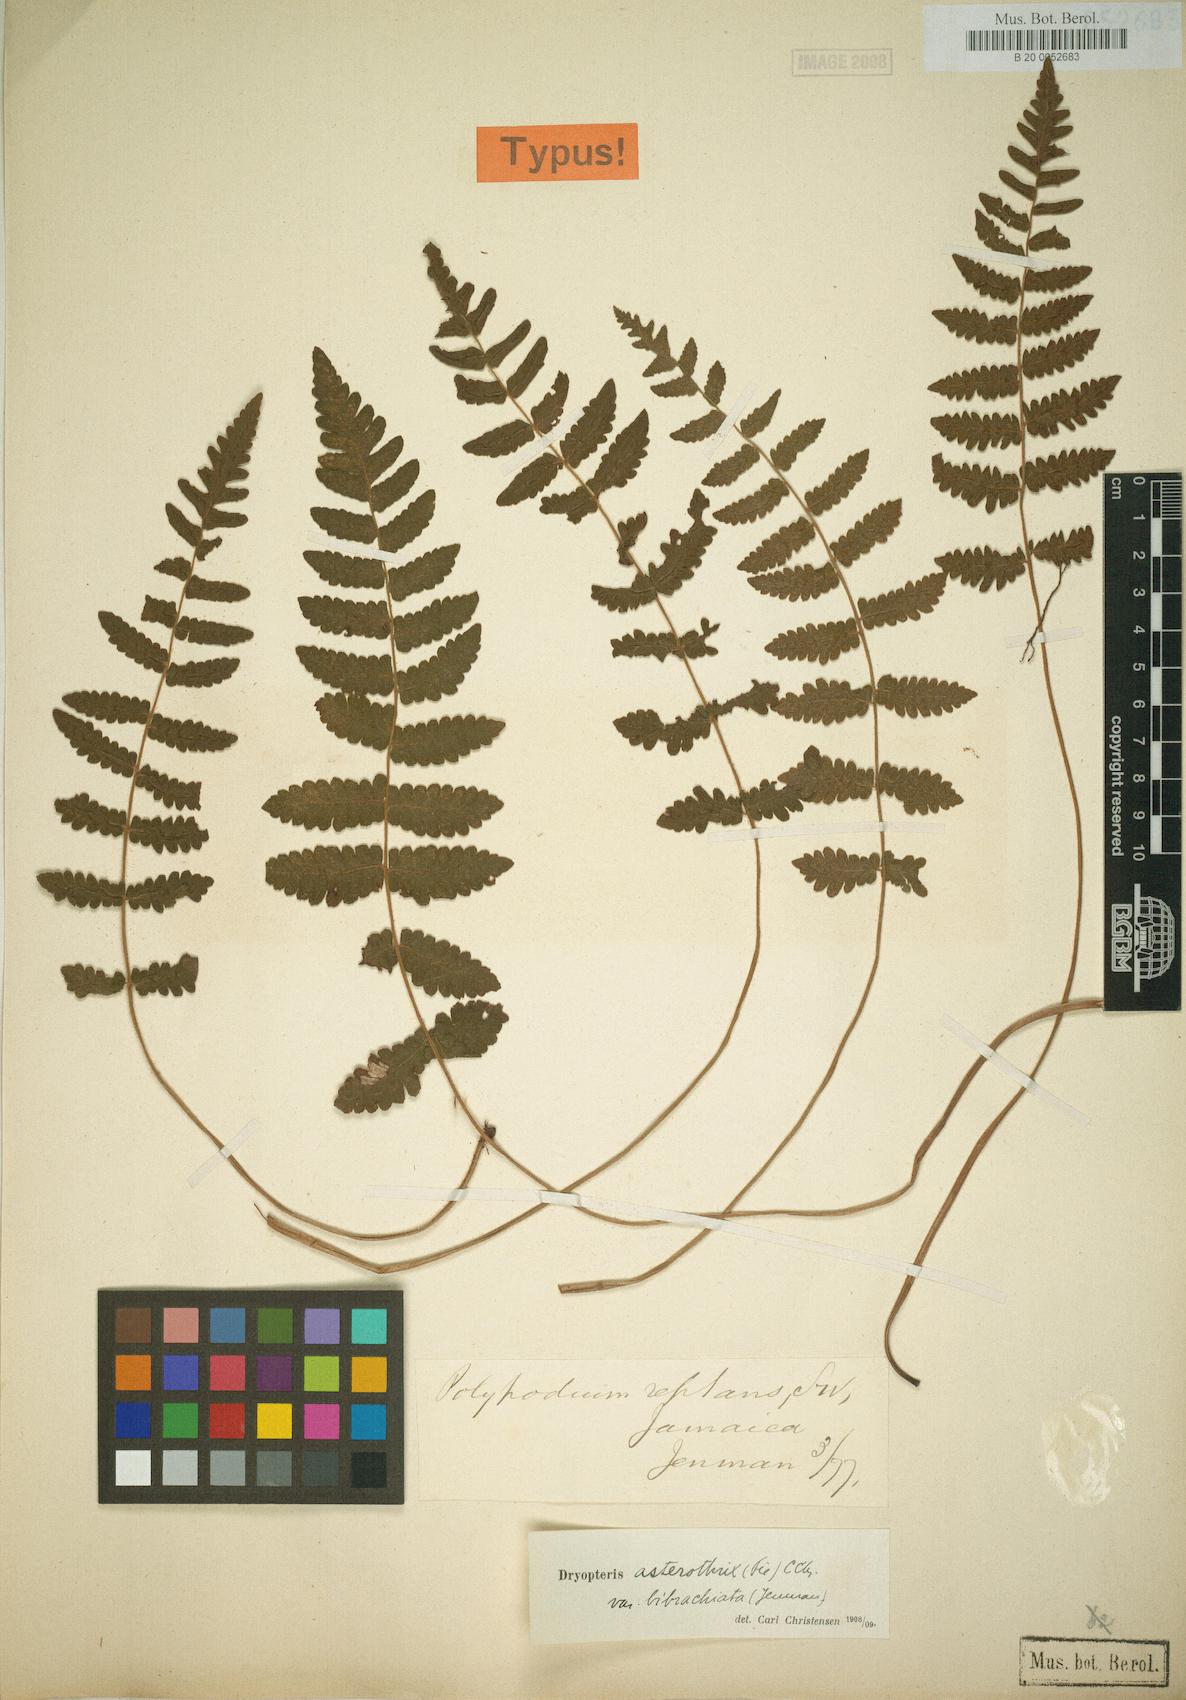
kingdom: Plantae
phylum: Tracheophyta
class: Polypodiopsida
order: Polypodiales
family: Thelypteridaceae
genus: Goniopteris
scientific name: Goniopteris bibrachiata
